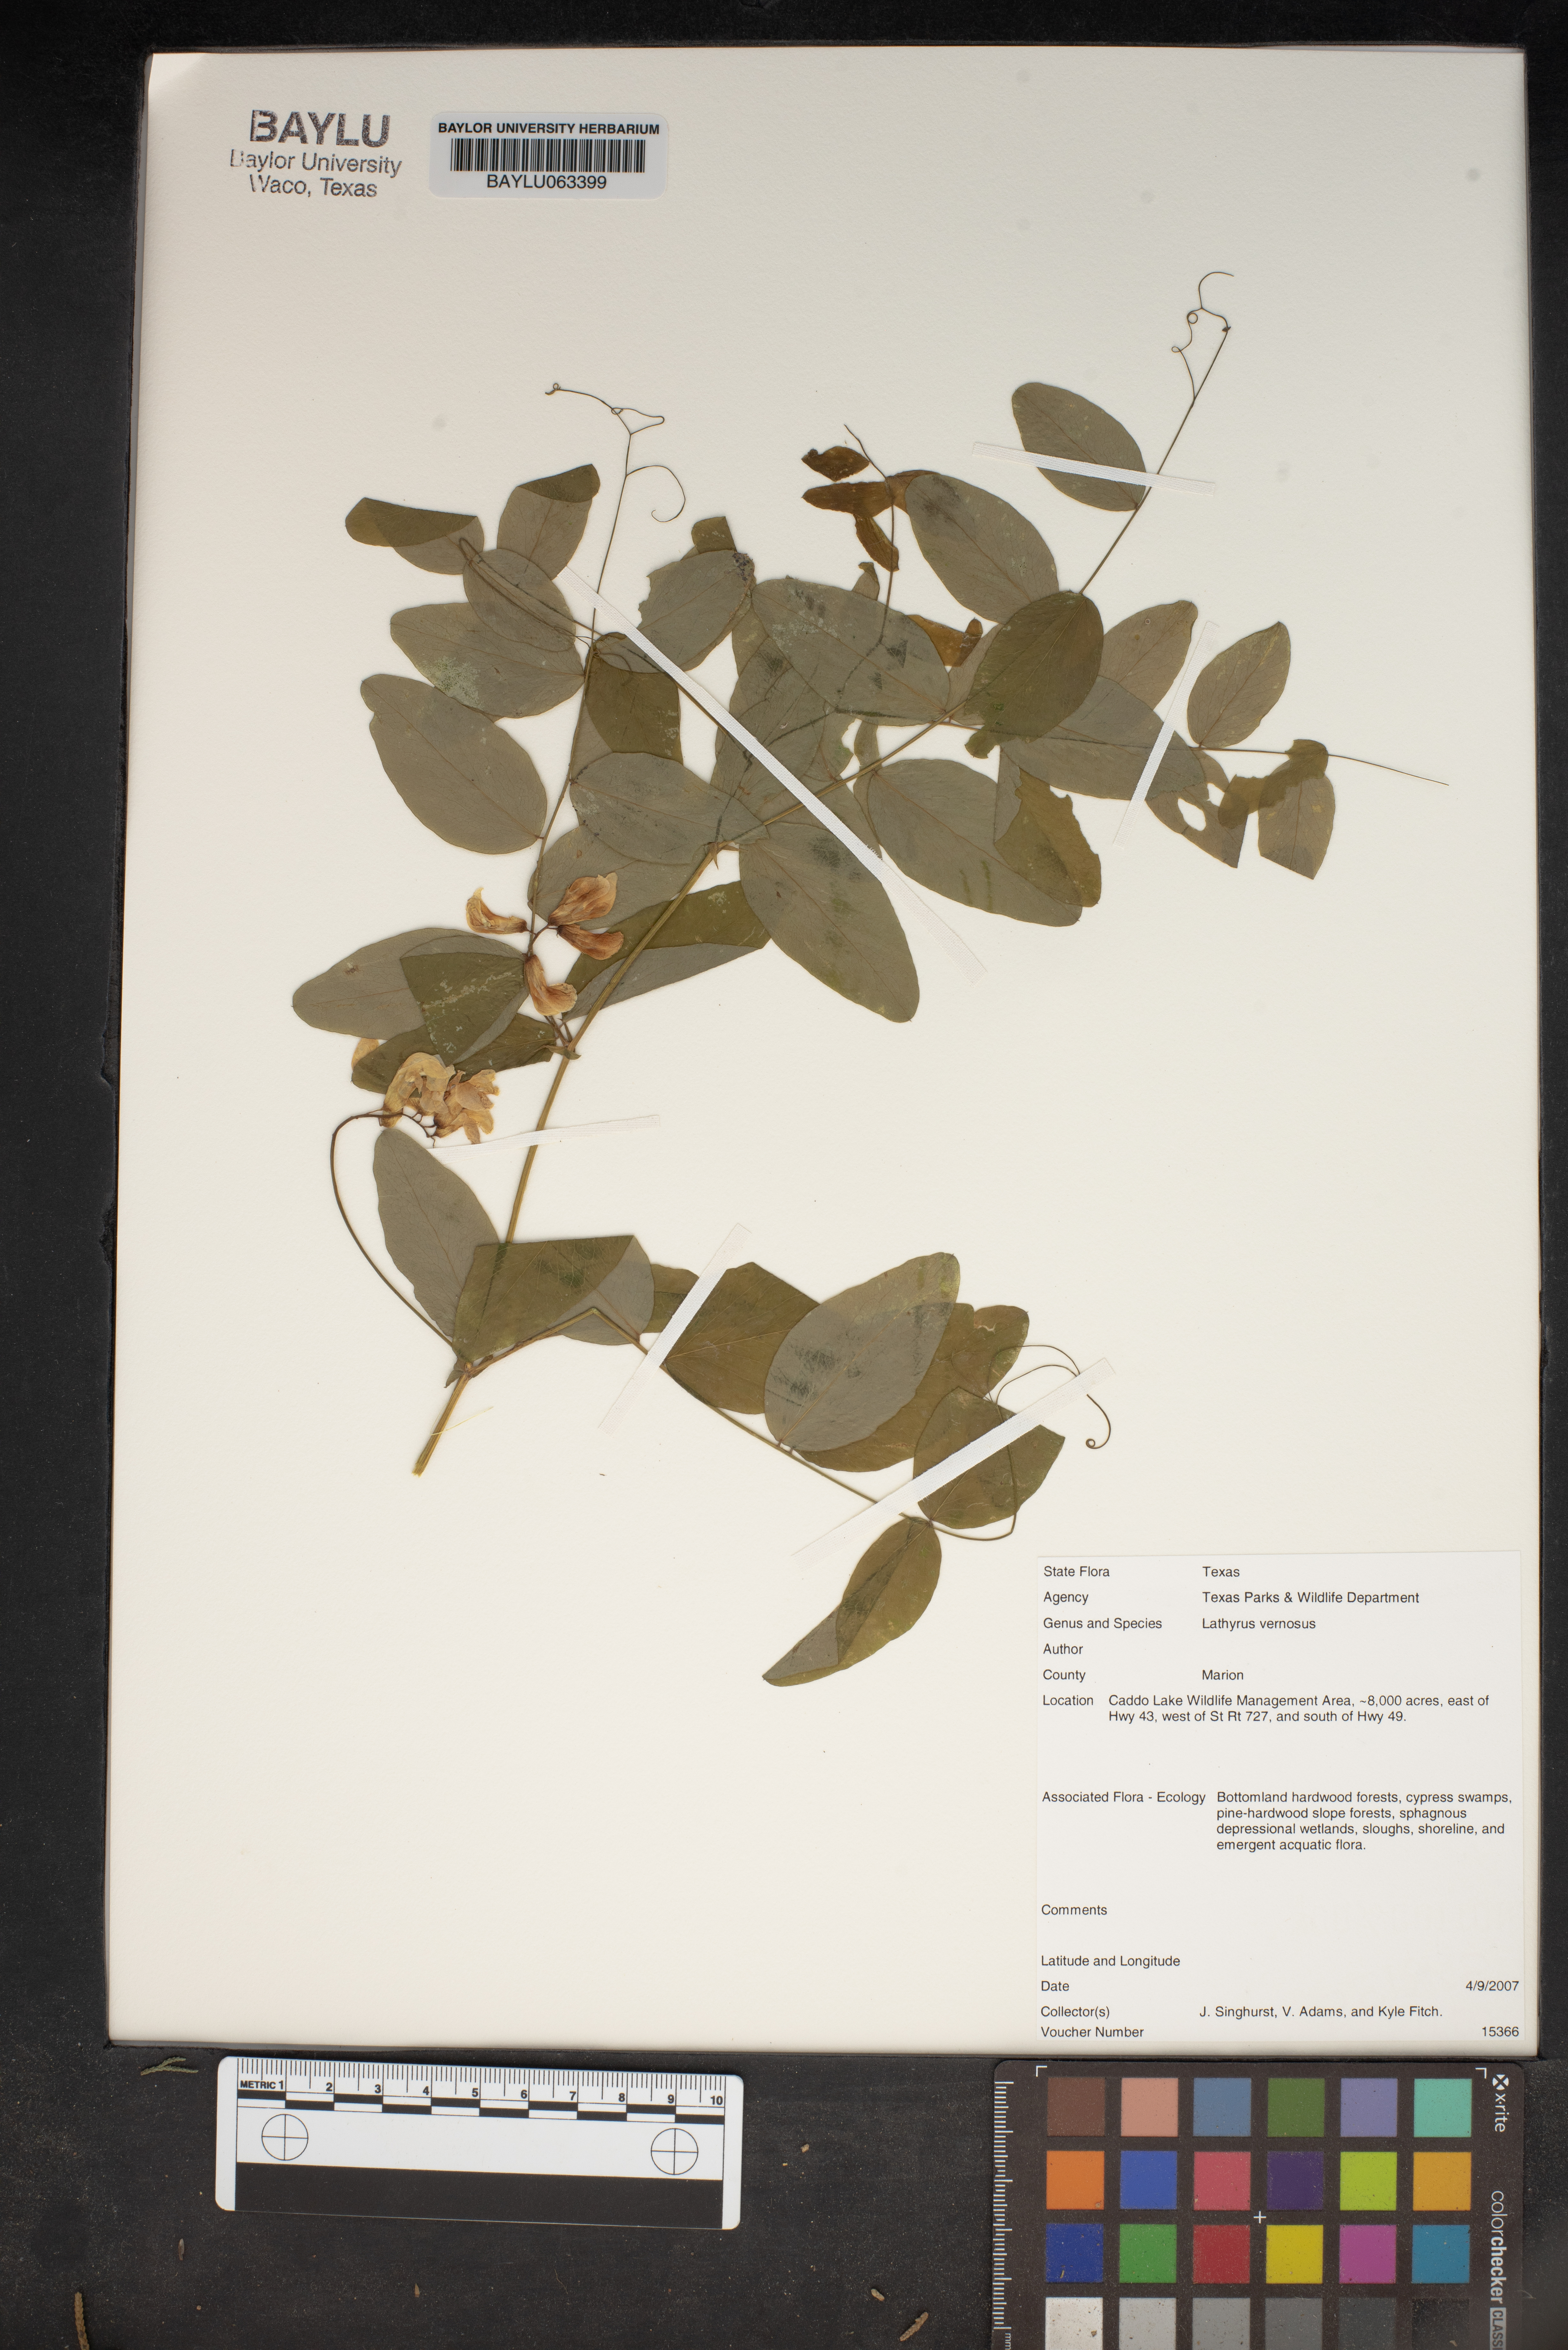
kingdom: Plantae
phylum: Tracheophyta
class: Magnoliopsida
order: Fabales
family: Fabaceae
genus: Lathyrus
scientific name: Lathyrus vernus
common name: Spring pea
